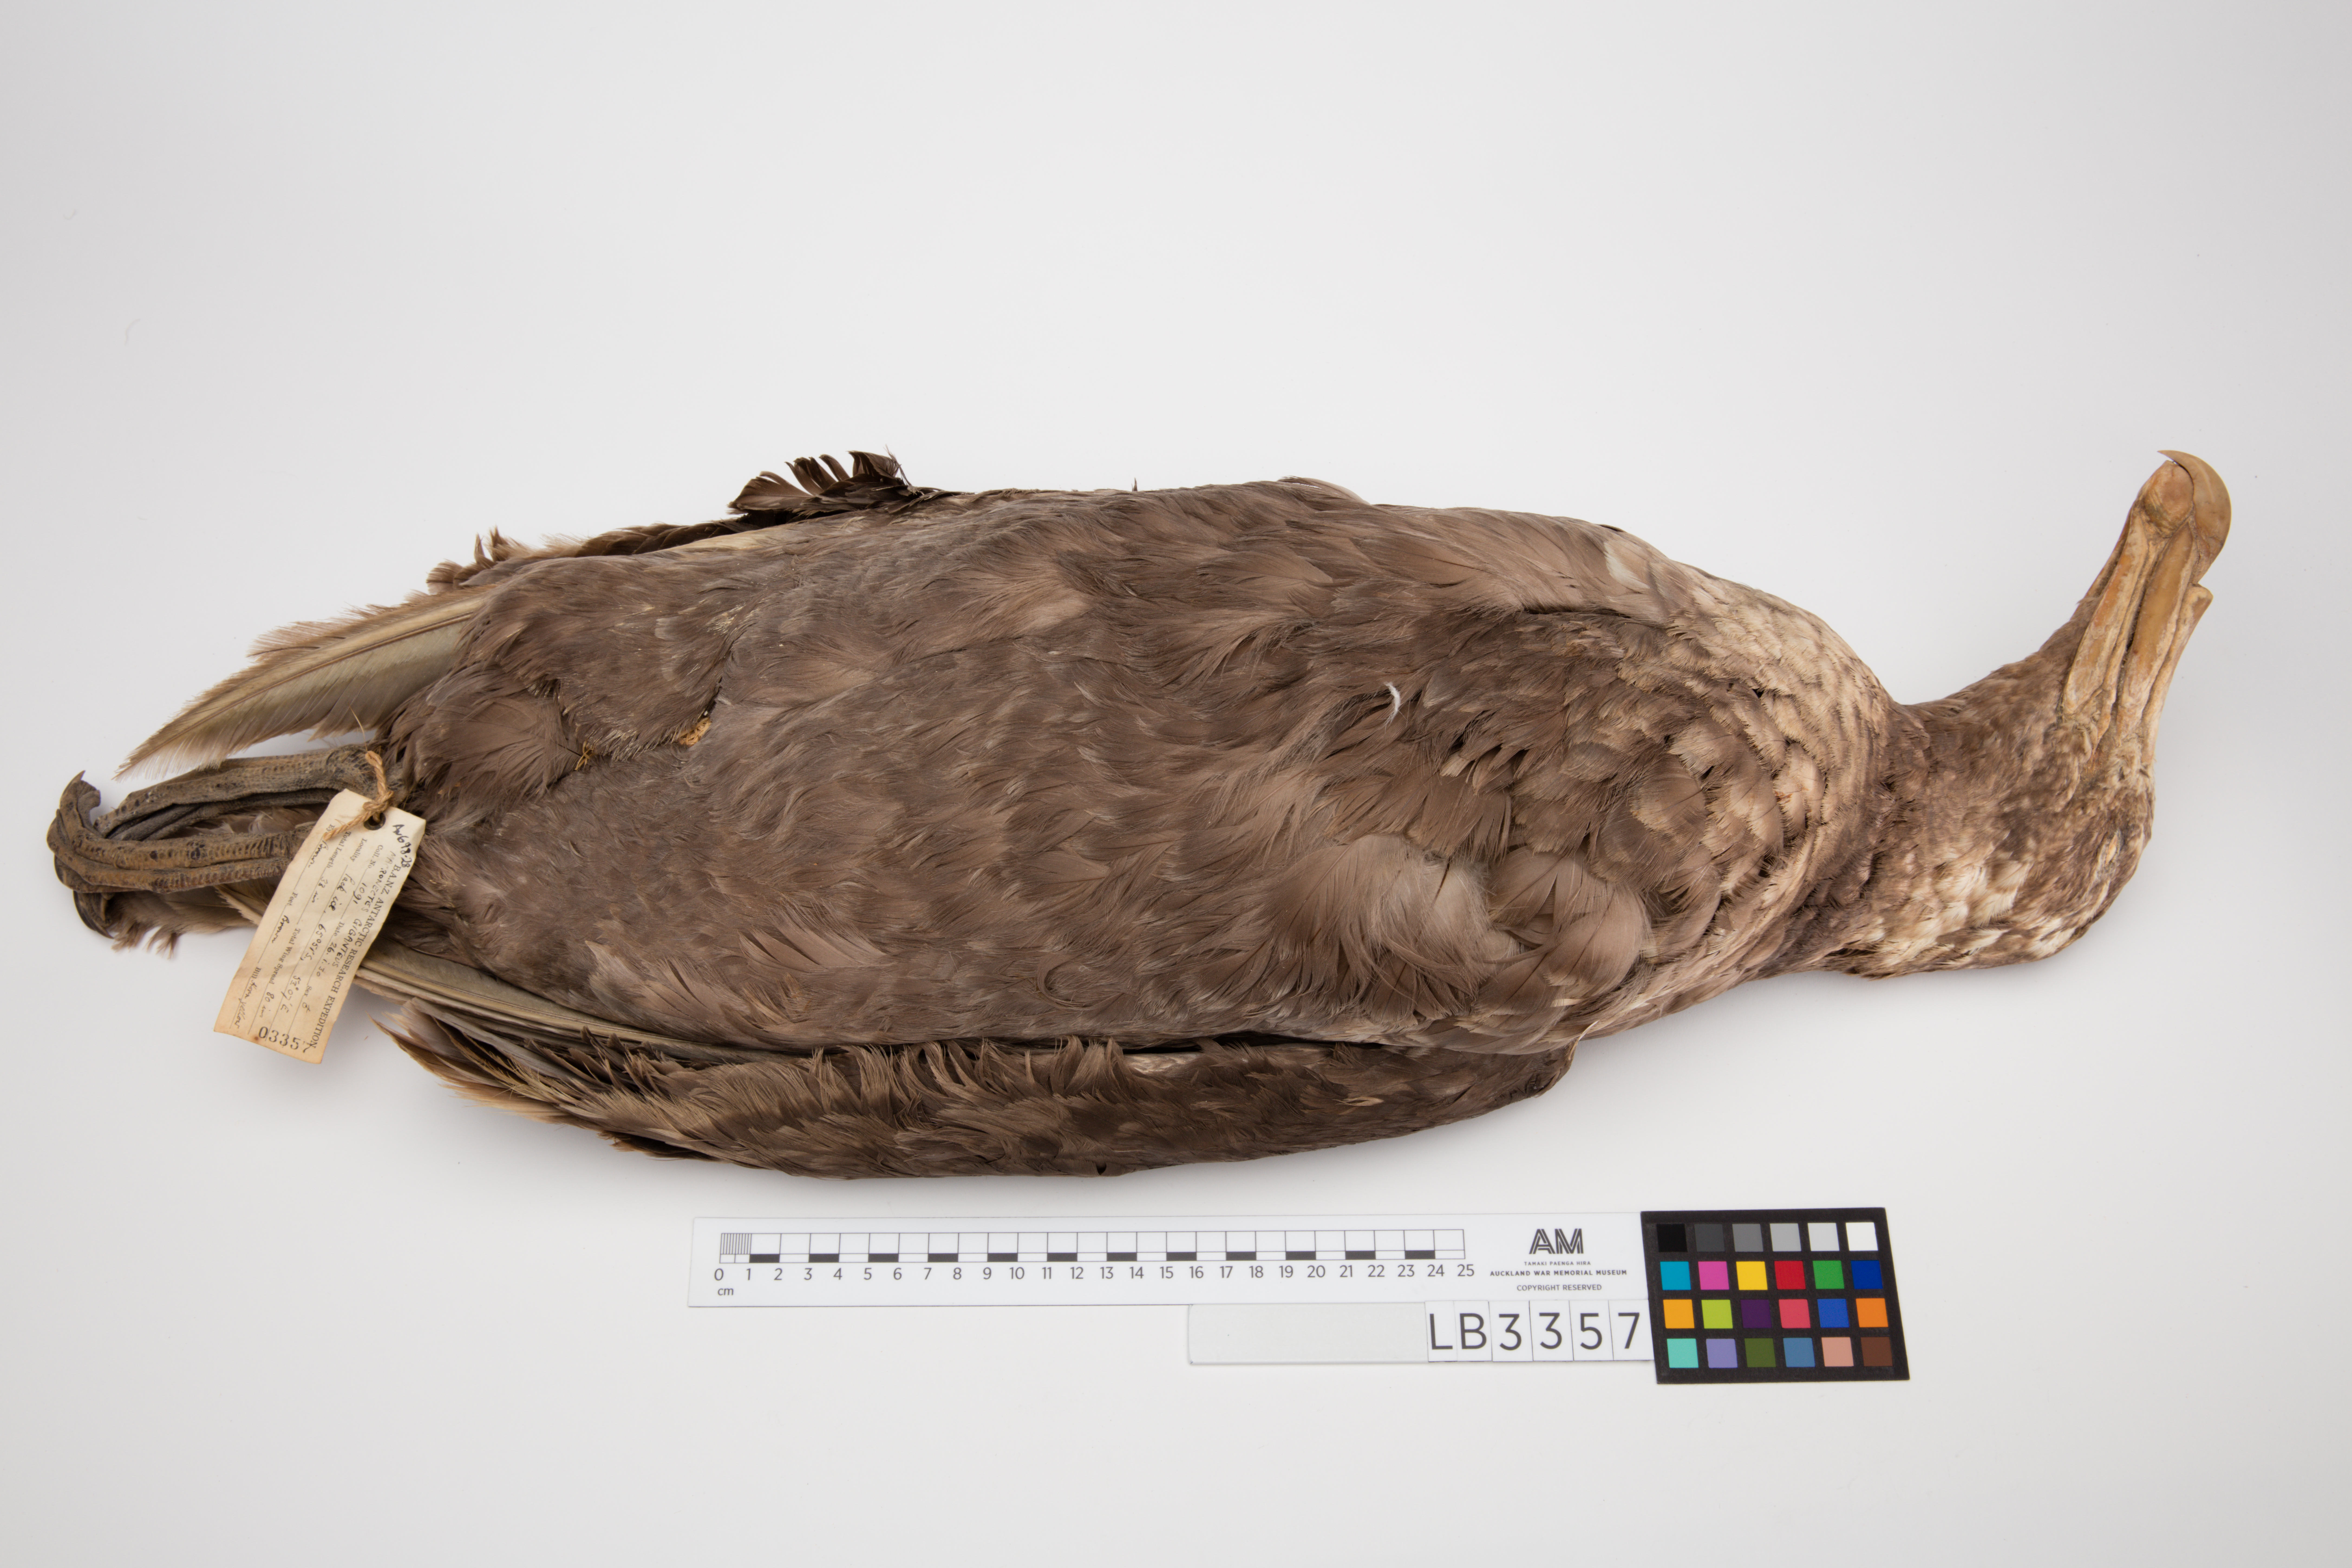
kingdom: Animalia
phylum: Chordata
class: Aves
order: Procellariiformes
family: Procellariidae
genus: Macronectes
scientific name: Macronectes giganteus
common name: Southern giant petrel
